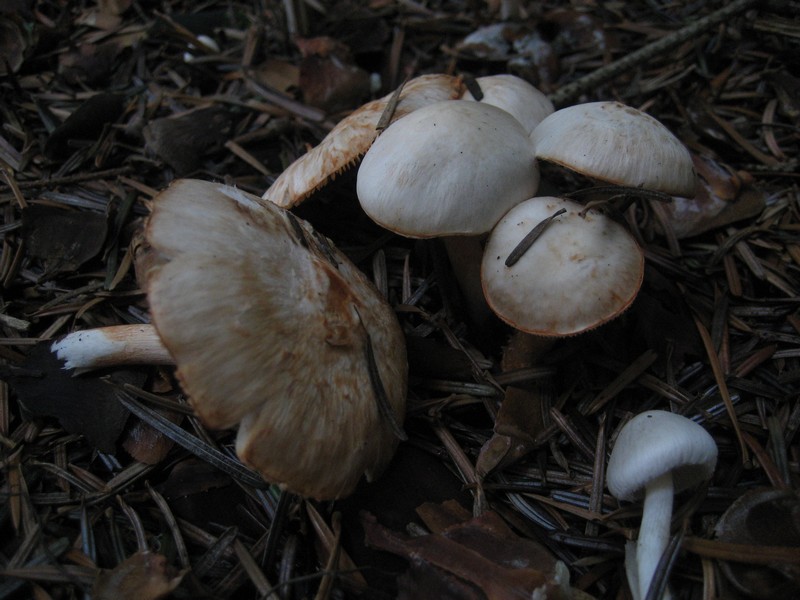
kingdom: Fungi
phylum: Basidiomycota
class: Agaricomycetes
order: Agaricales
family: Inocybaceae
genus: Inocybe
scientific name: Inocybe
